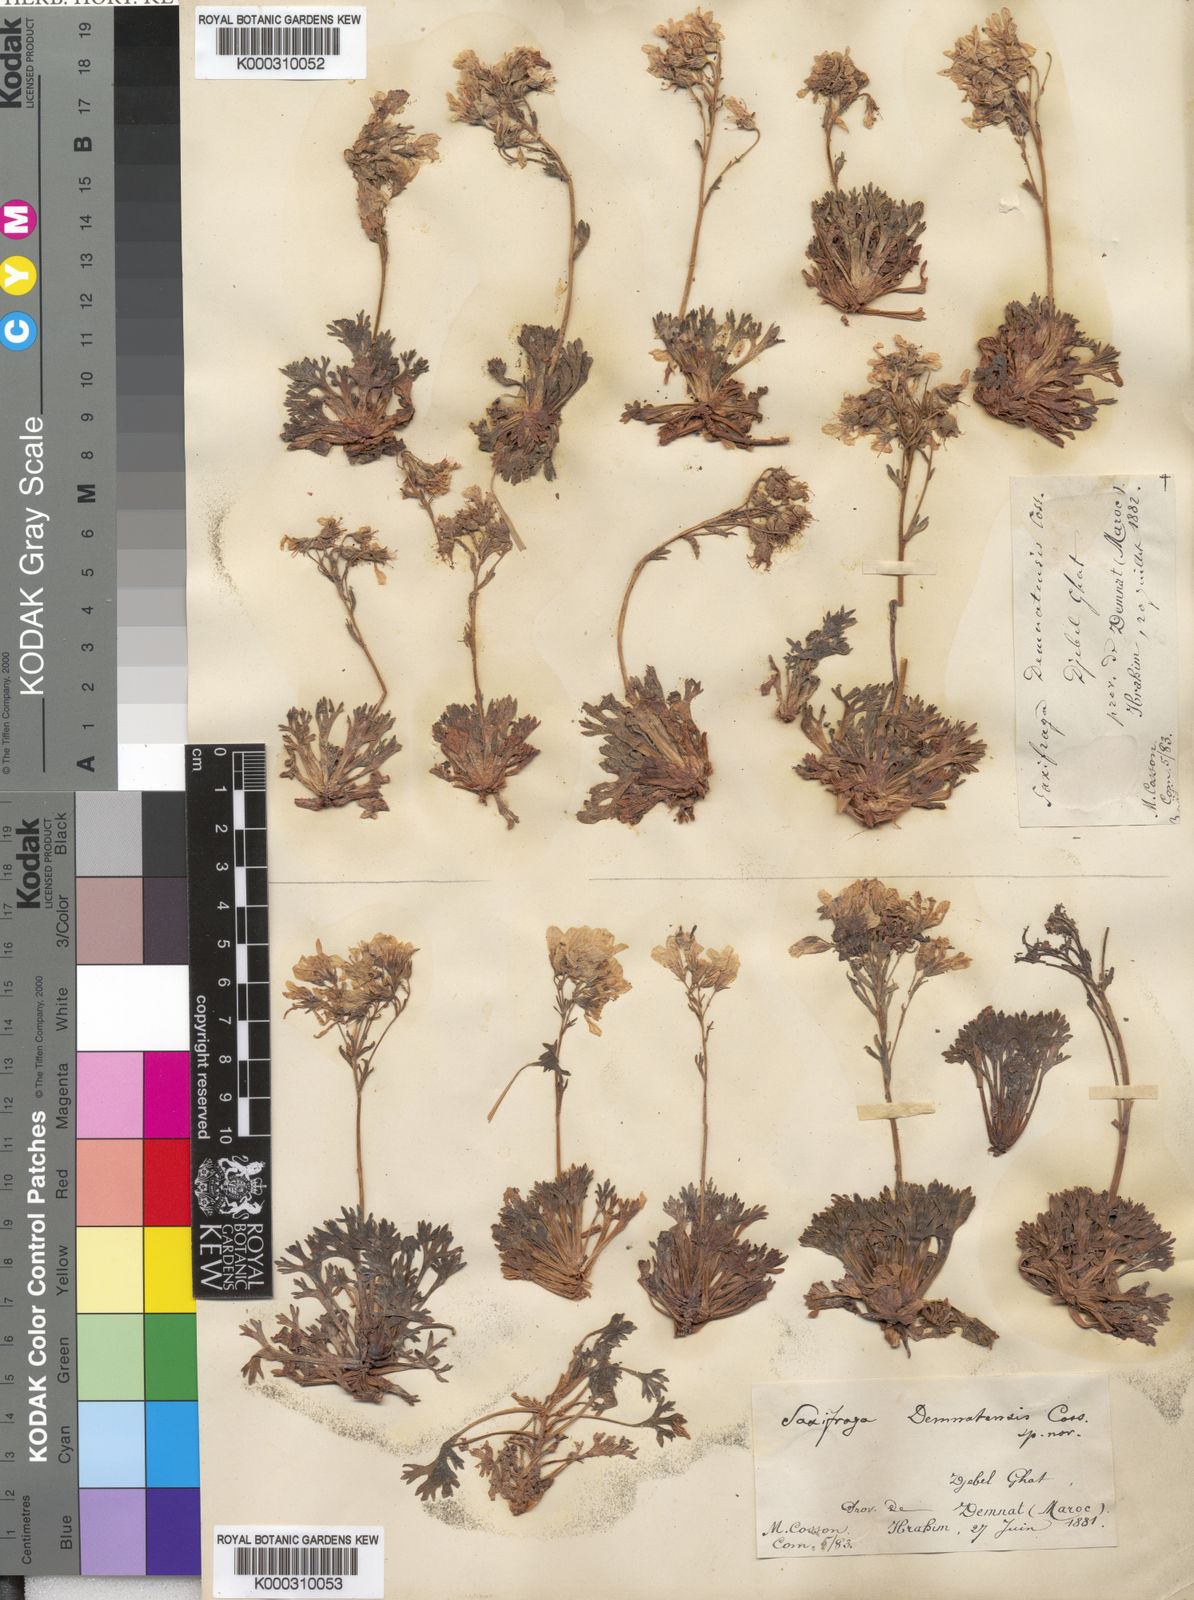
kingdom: Plantae
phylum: Tracheophyta
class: Magnoliopsida
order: Saxifragales
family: Saxifragaceae
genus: Saxifraga
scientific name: Saxifraga
